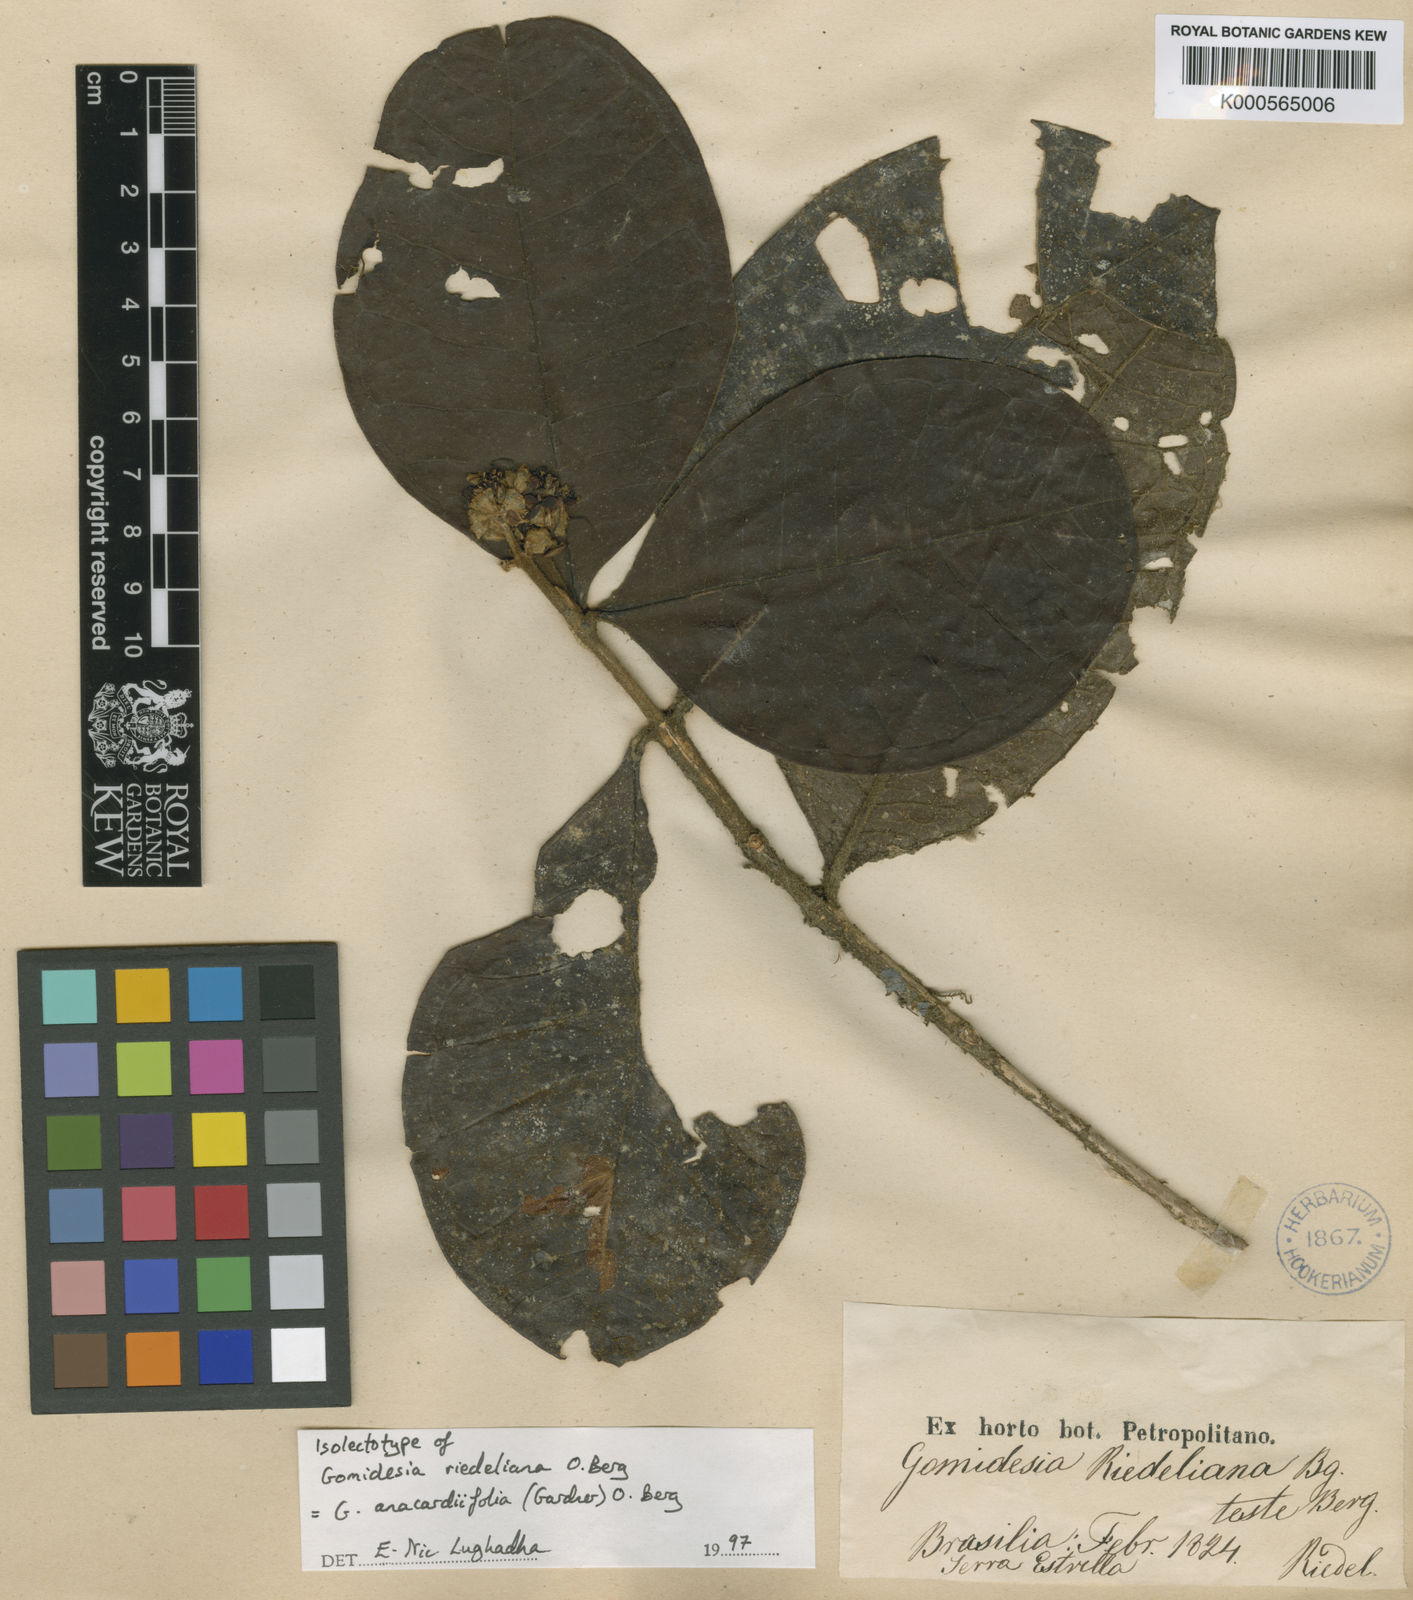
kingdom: Plantae
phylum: Tracheophyta
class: Magnoliopsida
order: Myrtales
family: Myrtaceae
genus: Myrcia
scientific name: Myrcia anacardiifolia
